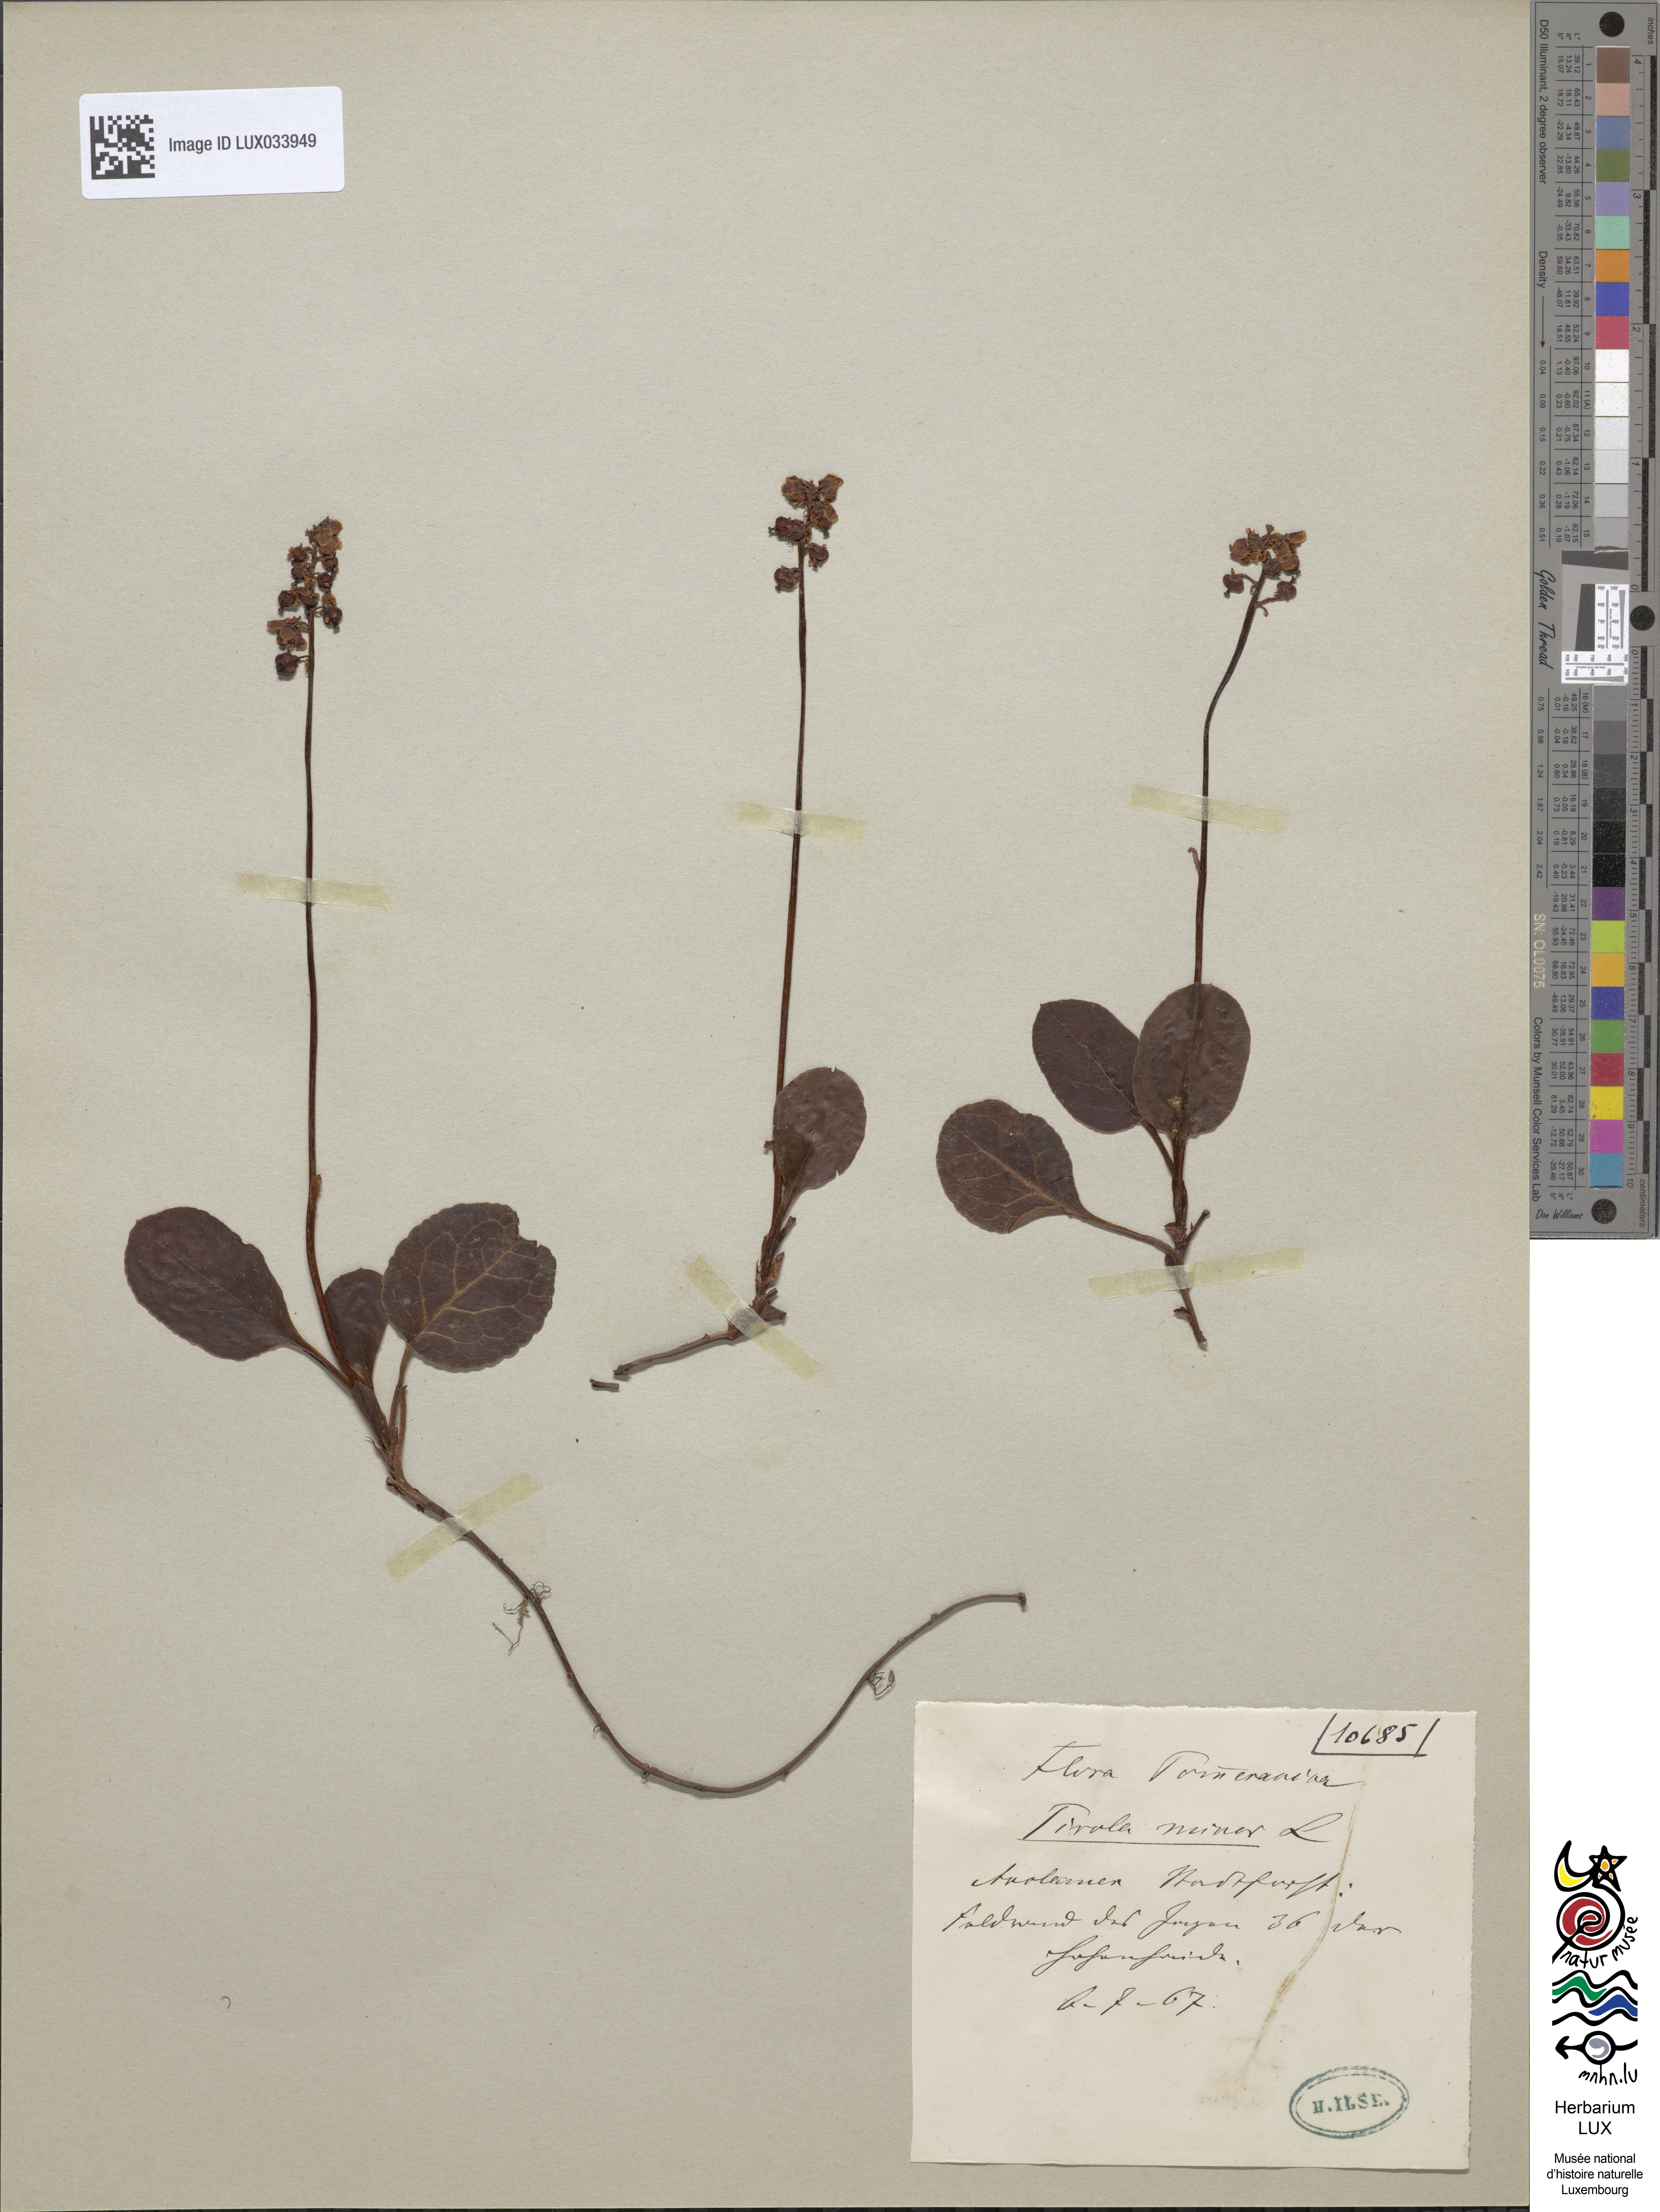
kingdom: Plantae
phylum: Tracheophyta
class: Magnoliopsida
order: Ericales
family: Ericaceae
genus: Pyrola
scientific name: Pyrola minor
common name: Common wintergreen
